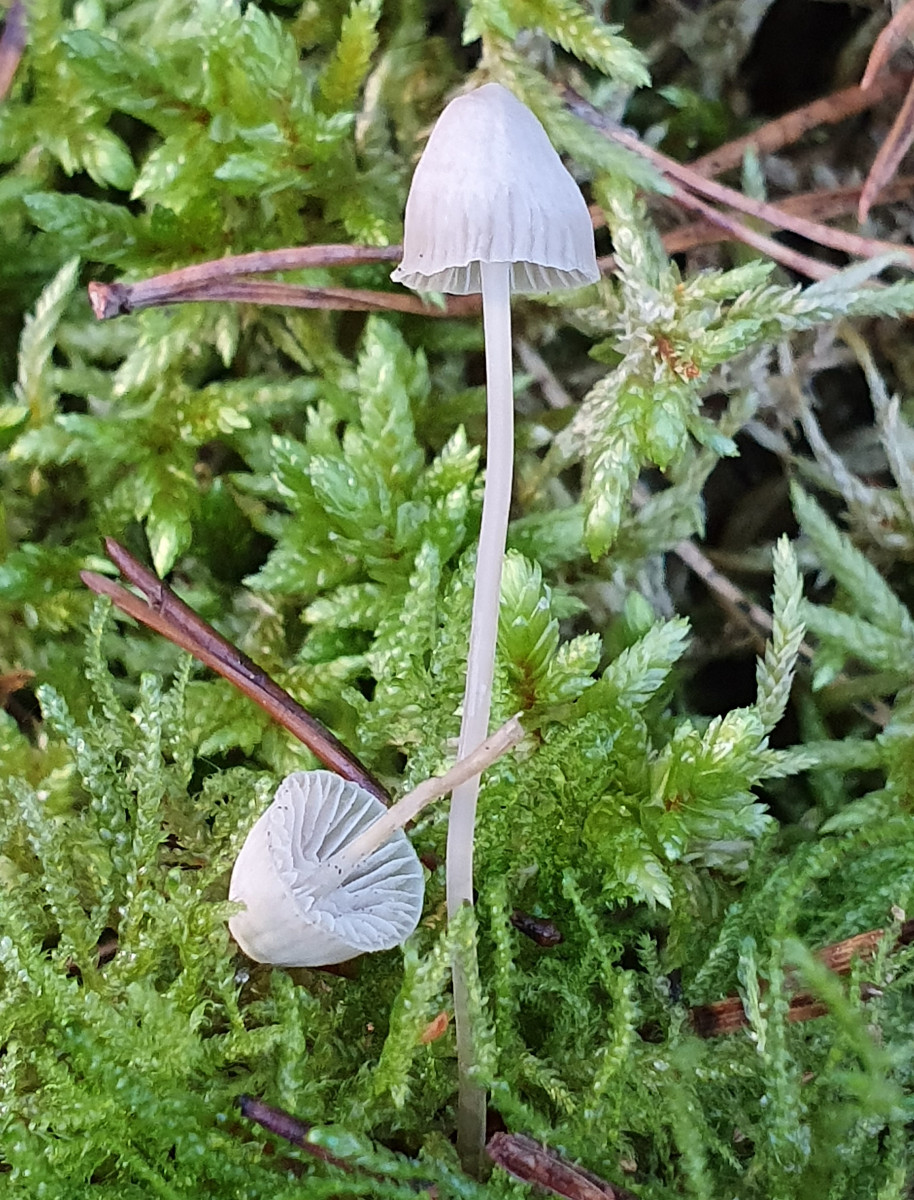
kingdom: Fungi
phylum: Basidiomycota
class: Agaricomycetes
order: Agaricales
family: Mycenaceae
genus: Mycena
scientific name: Mycena cinerella
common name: mel-huesvamp
